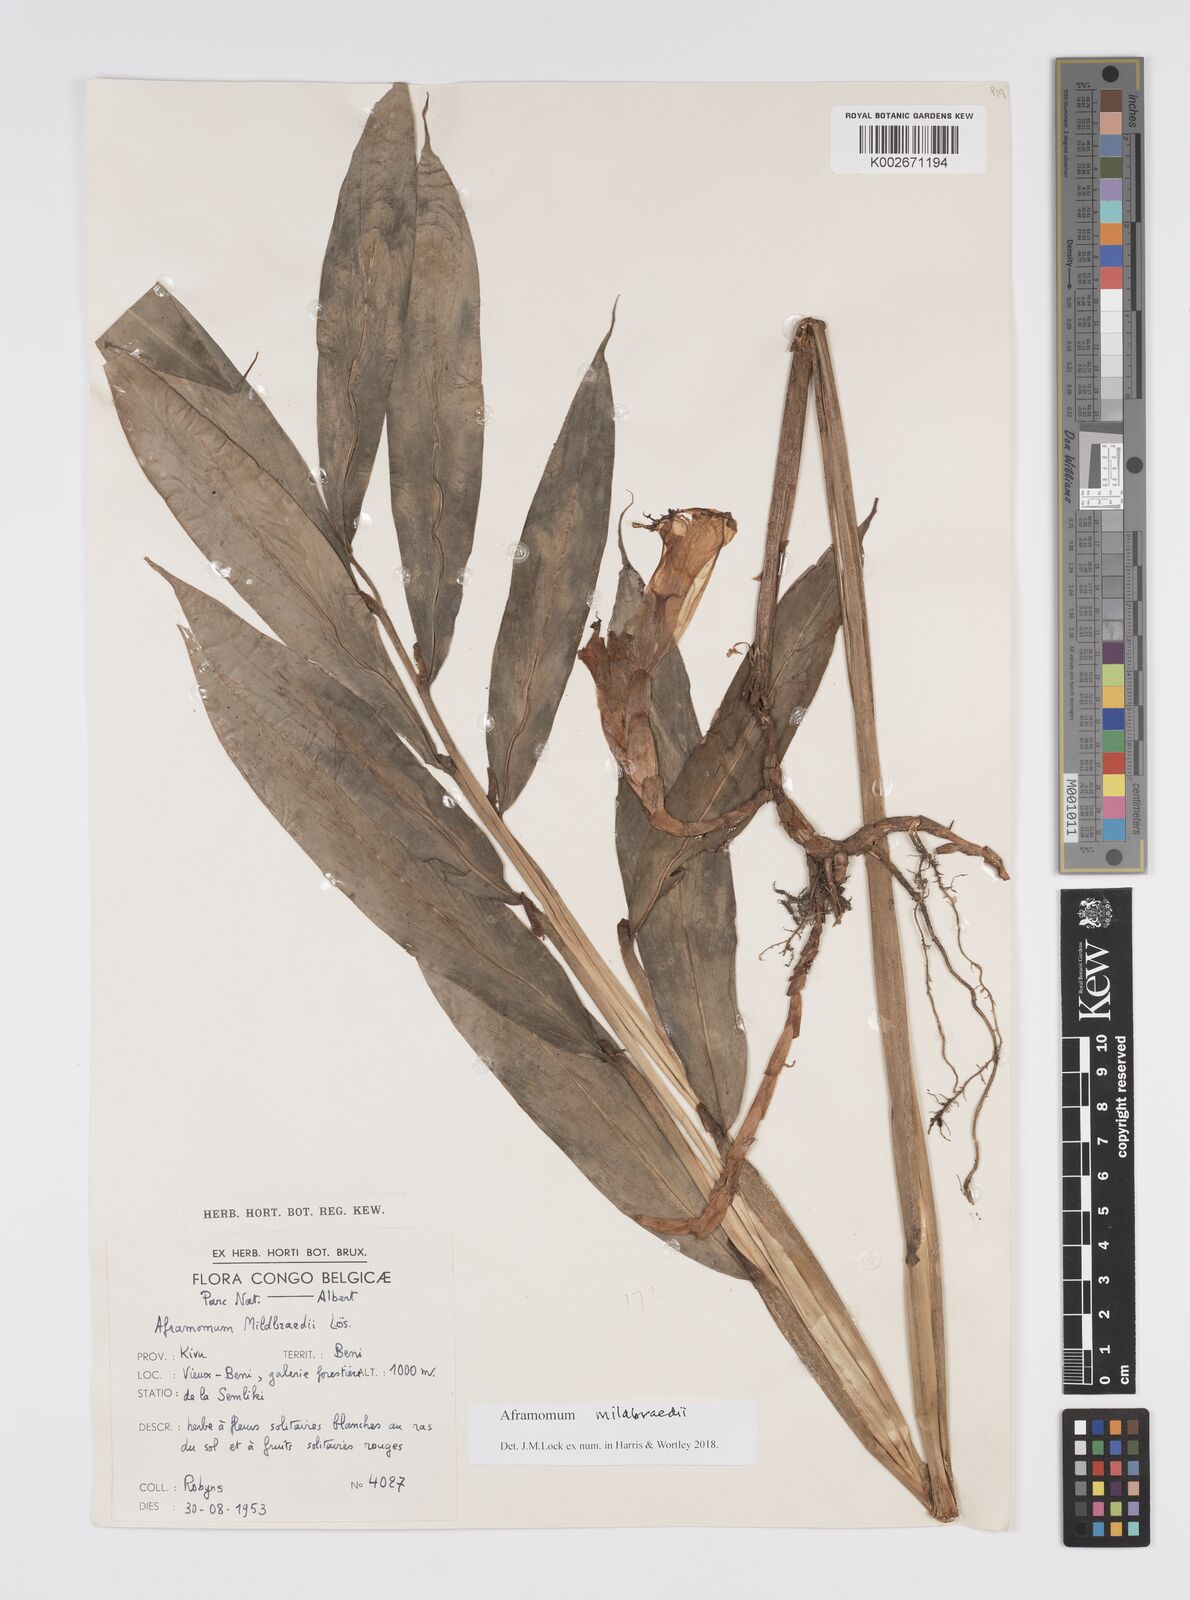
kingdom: Plantae
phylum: Tracheophyta
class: Liliopsida
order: Zingiberales
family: Zingiberaceae
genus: Aframomum
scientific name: Aframomum mildbraedii
